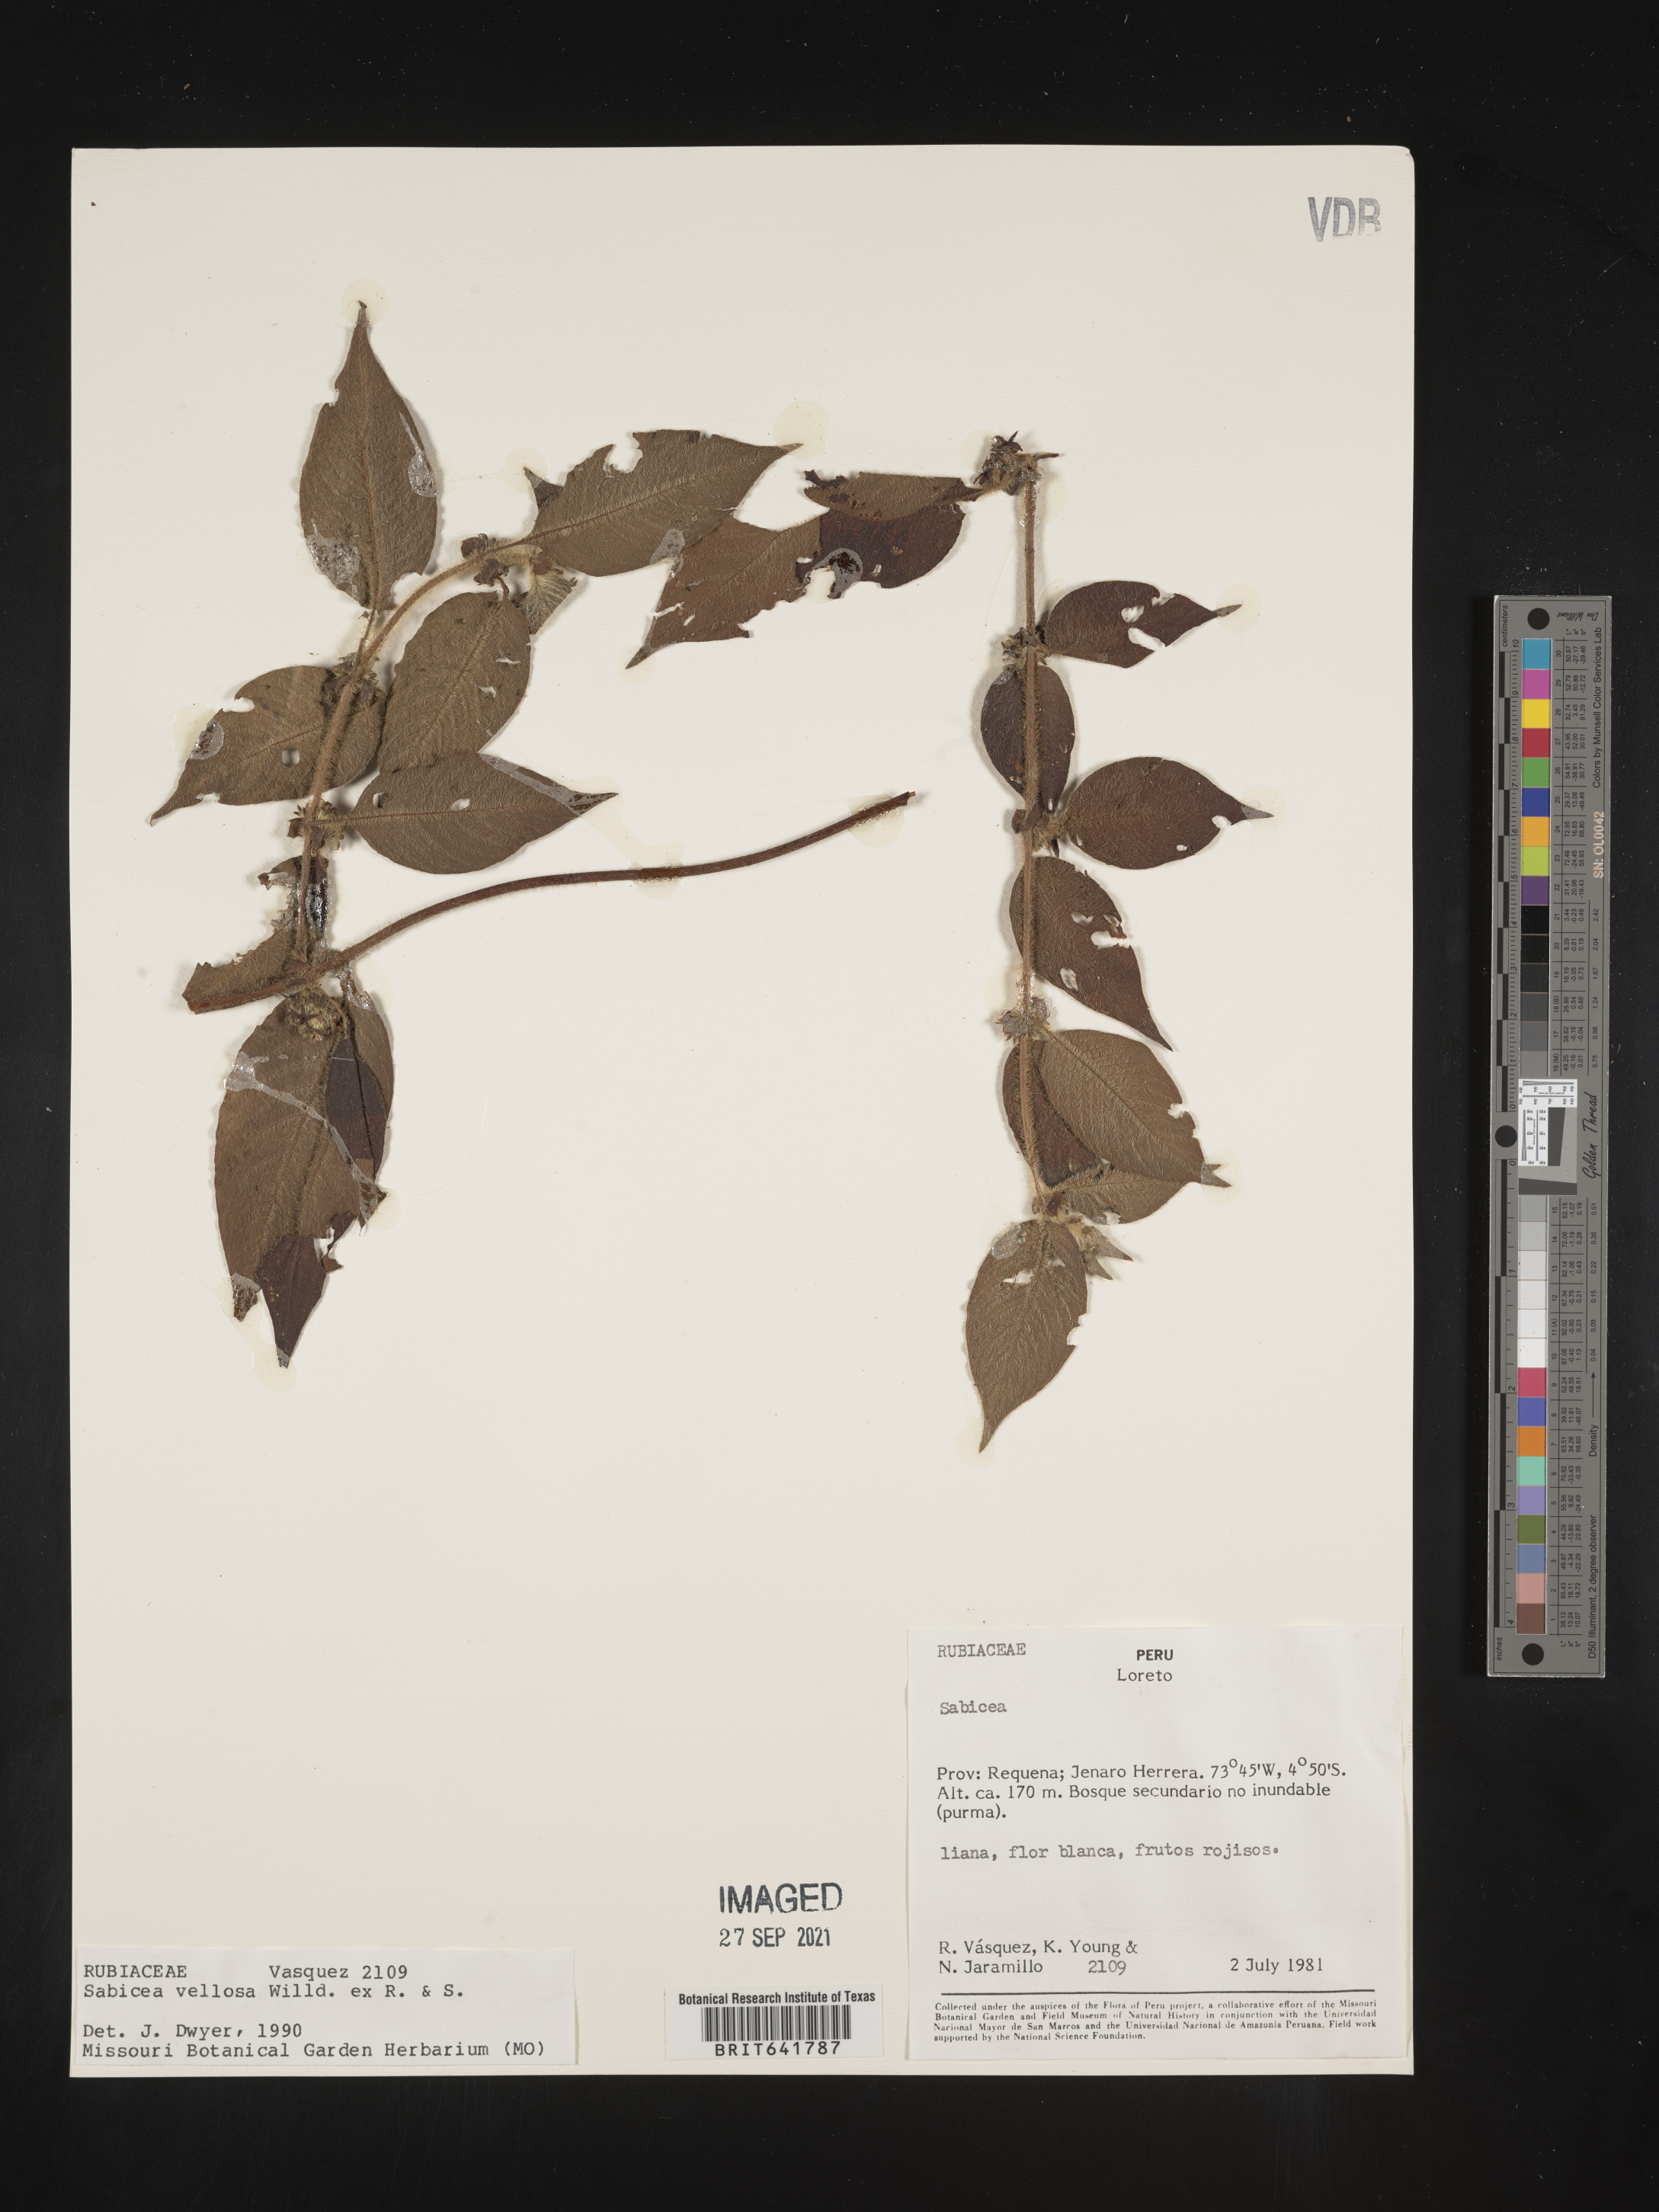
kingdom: Plantae
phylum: Tracheophyta
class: Magnoliopsida
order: Gentianales
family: Rubiaceae
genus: Sabicea
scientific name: Sabicea
